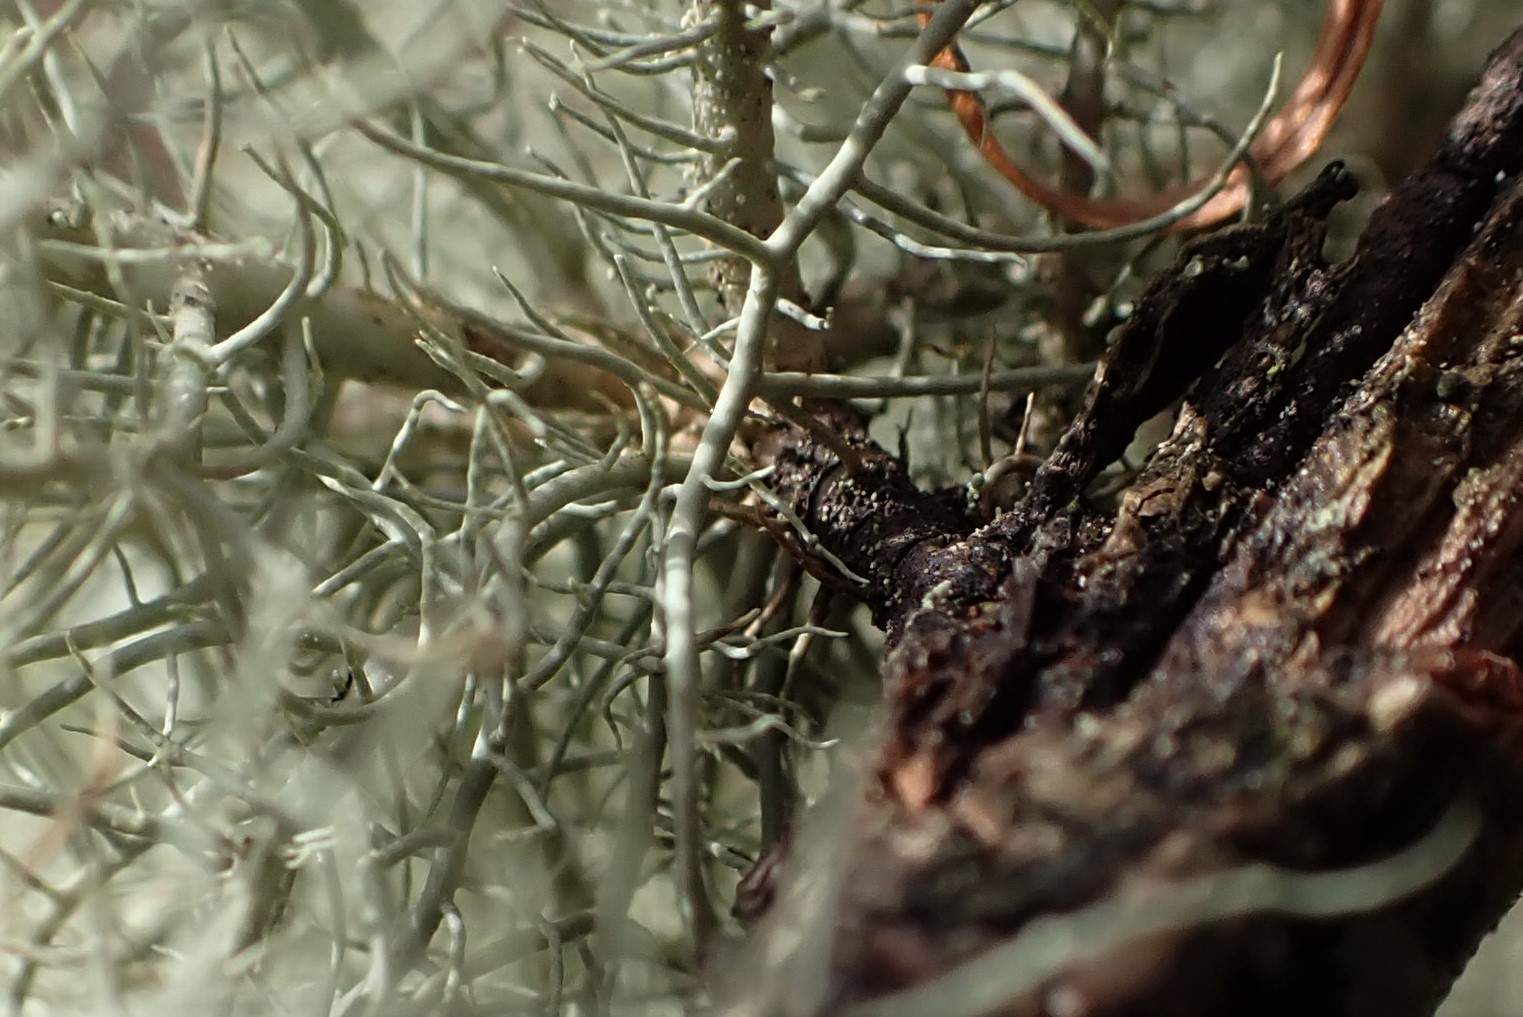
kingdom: Fungi
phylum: Ascomycota
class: Lecanoromycetes
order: Lecanorales
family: Parmeliaceae
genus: Usnea
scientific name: Usnea subfloridana
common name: busket skæglav
